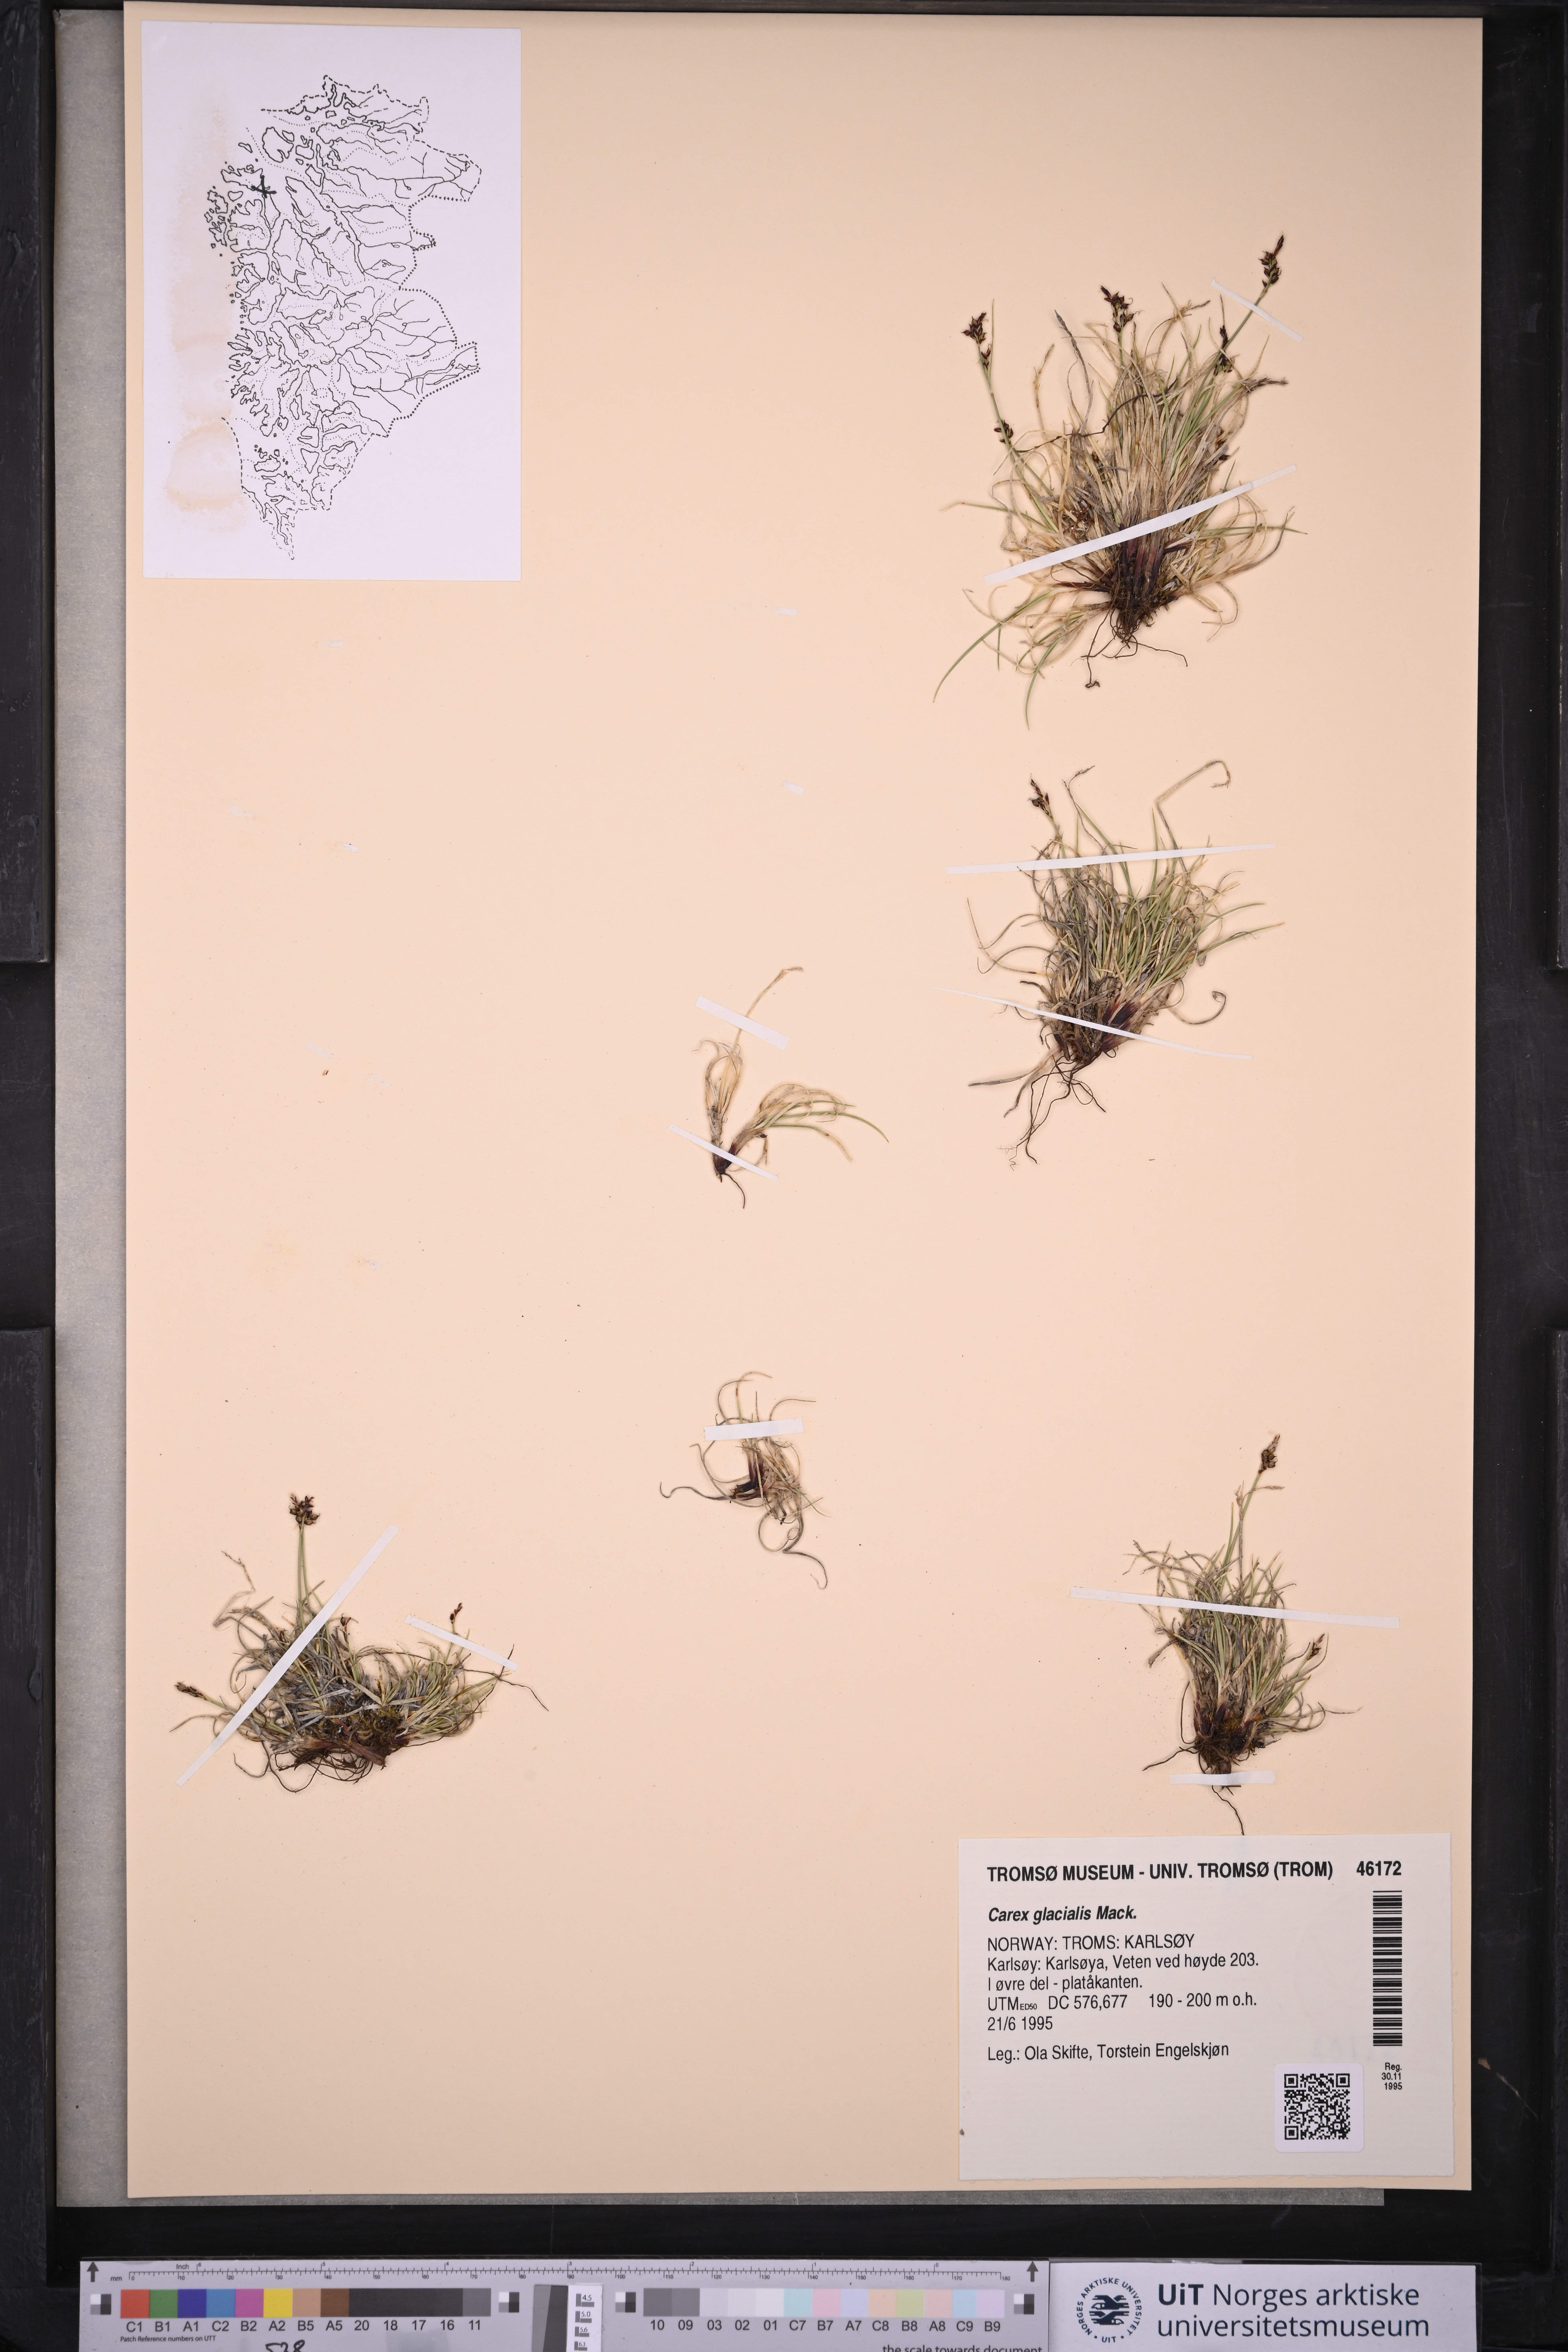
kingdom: Plantae
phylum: Tracheophyta
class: Liliopsida
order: Poales
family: Cyperaceae
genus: Carex
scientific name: Carex glacialis
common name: Newfoundland sedge
